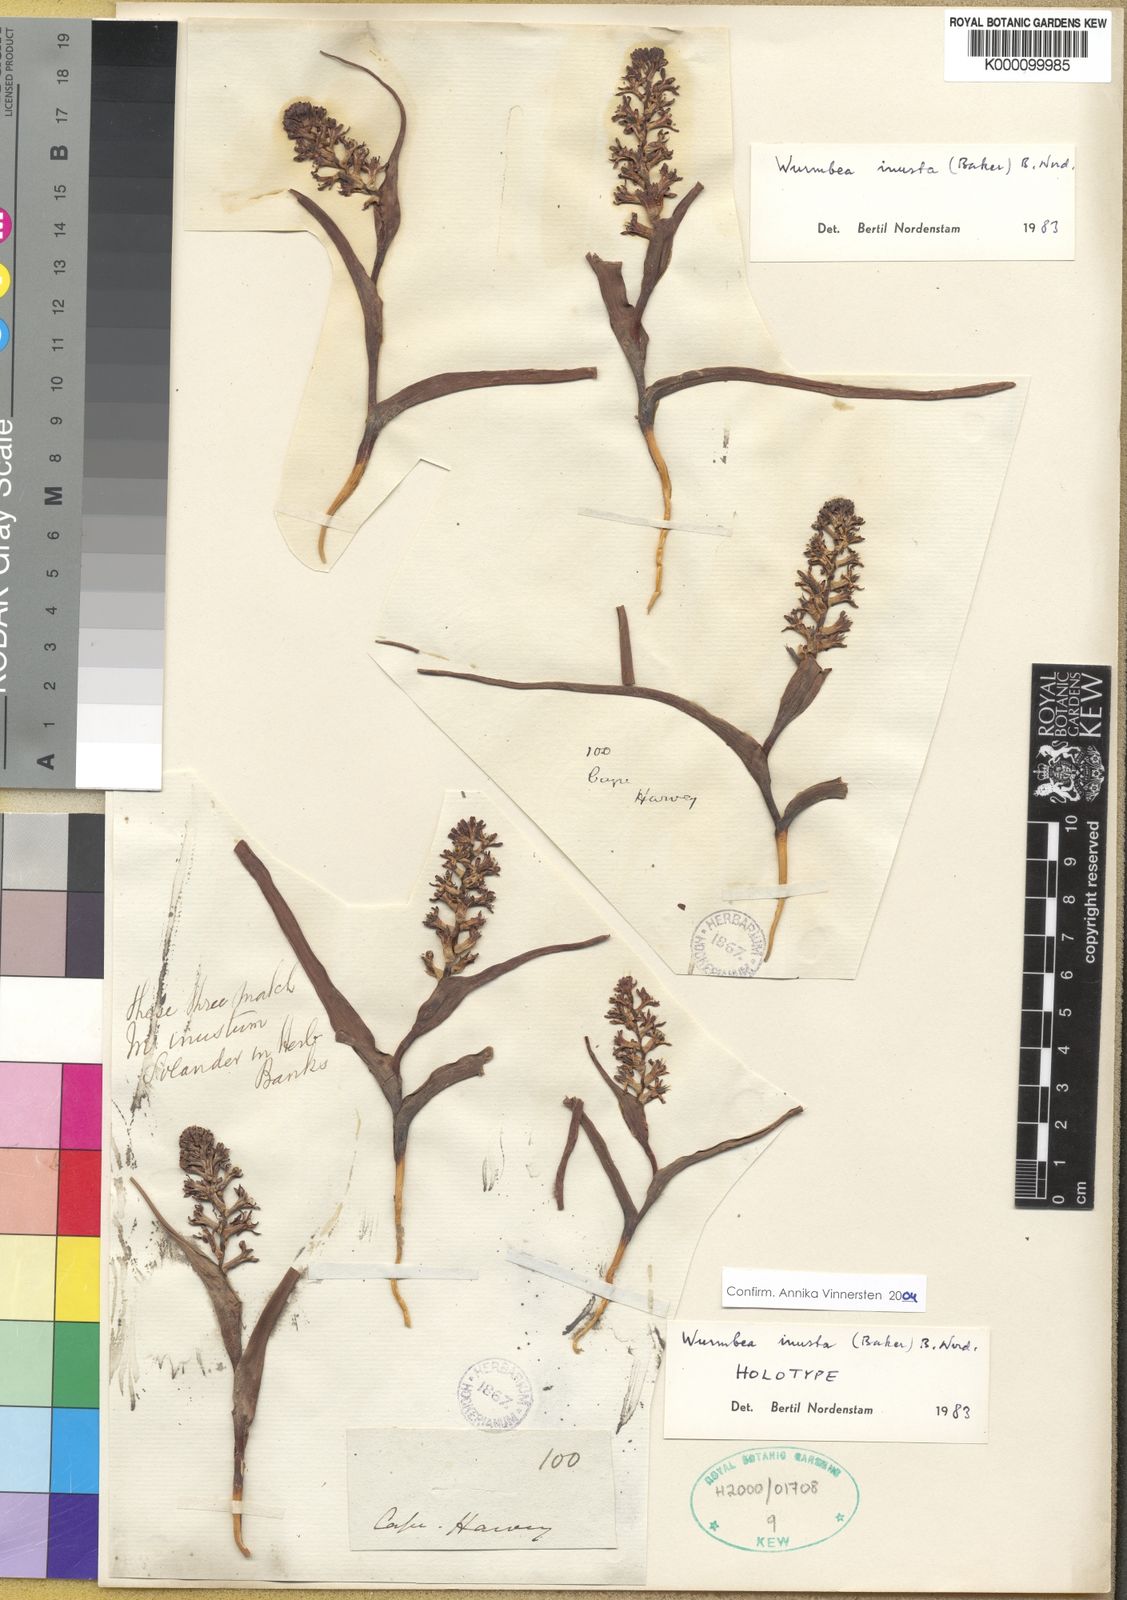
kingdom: Plantae
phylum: Tracheophyta
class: Liliopsida
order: Liliales
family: Colchicaceae
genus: Wurmbea
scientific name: Wurmbea inusta
